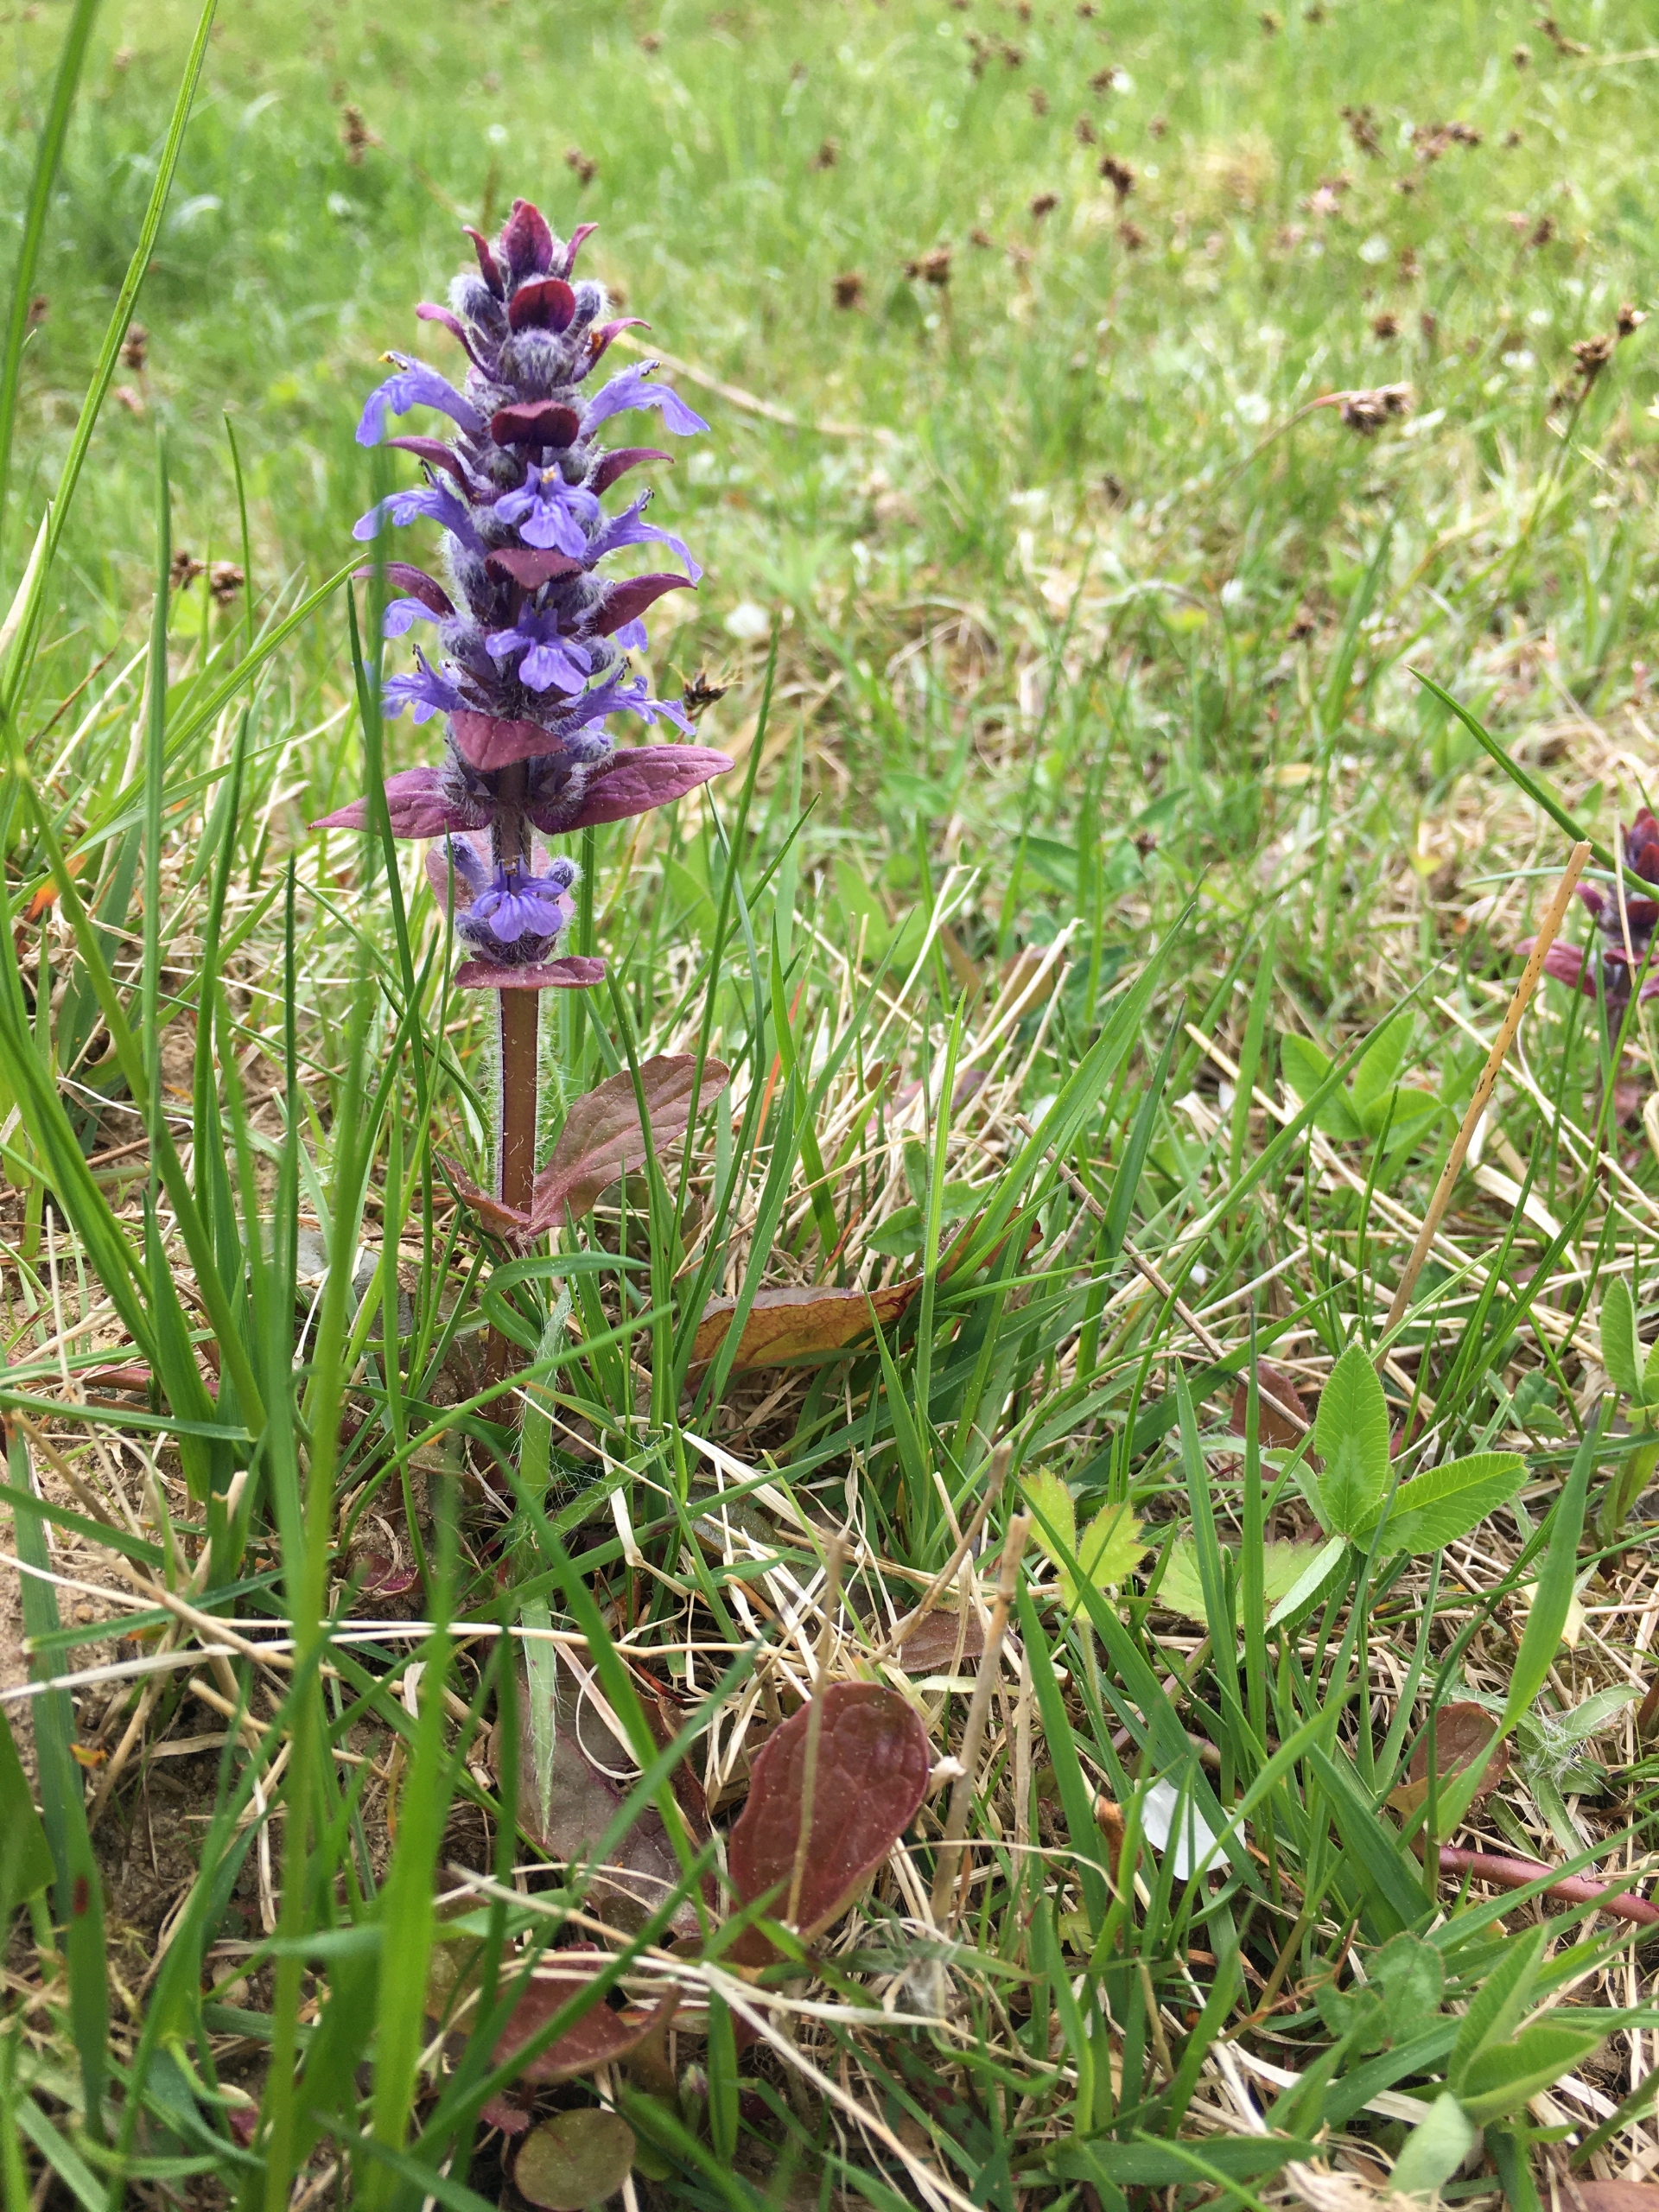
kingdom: Plantae
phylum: Tracheophyta
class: Magnoliopsida
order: Lamiales
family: Lamiaceae
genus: Ajuga
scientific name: Ajuga reptans
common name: Krybende læbeløs
